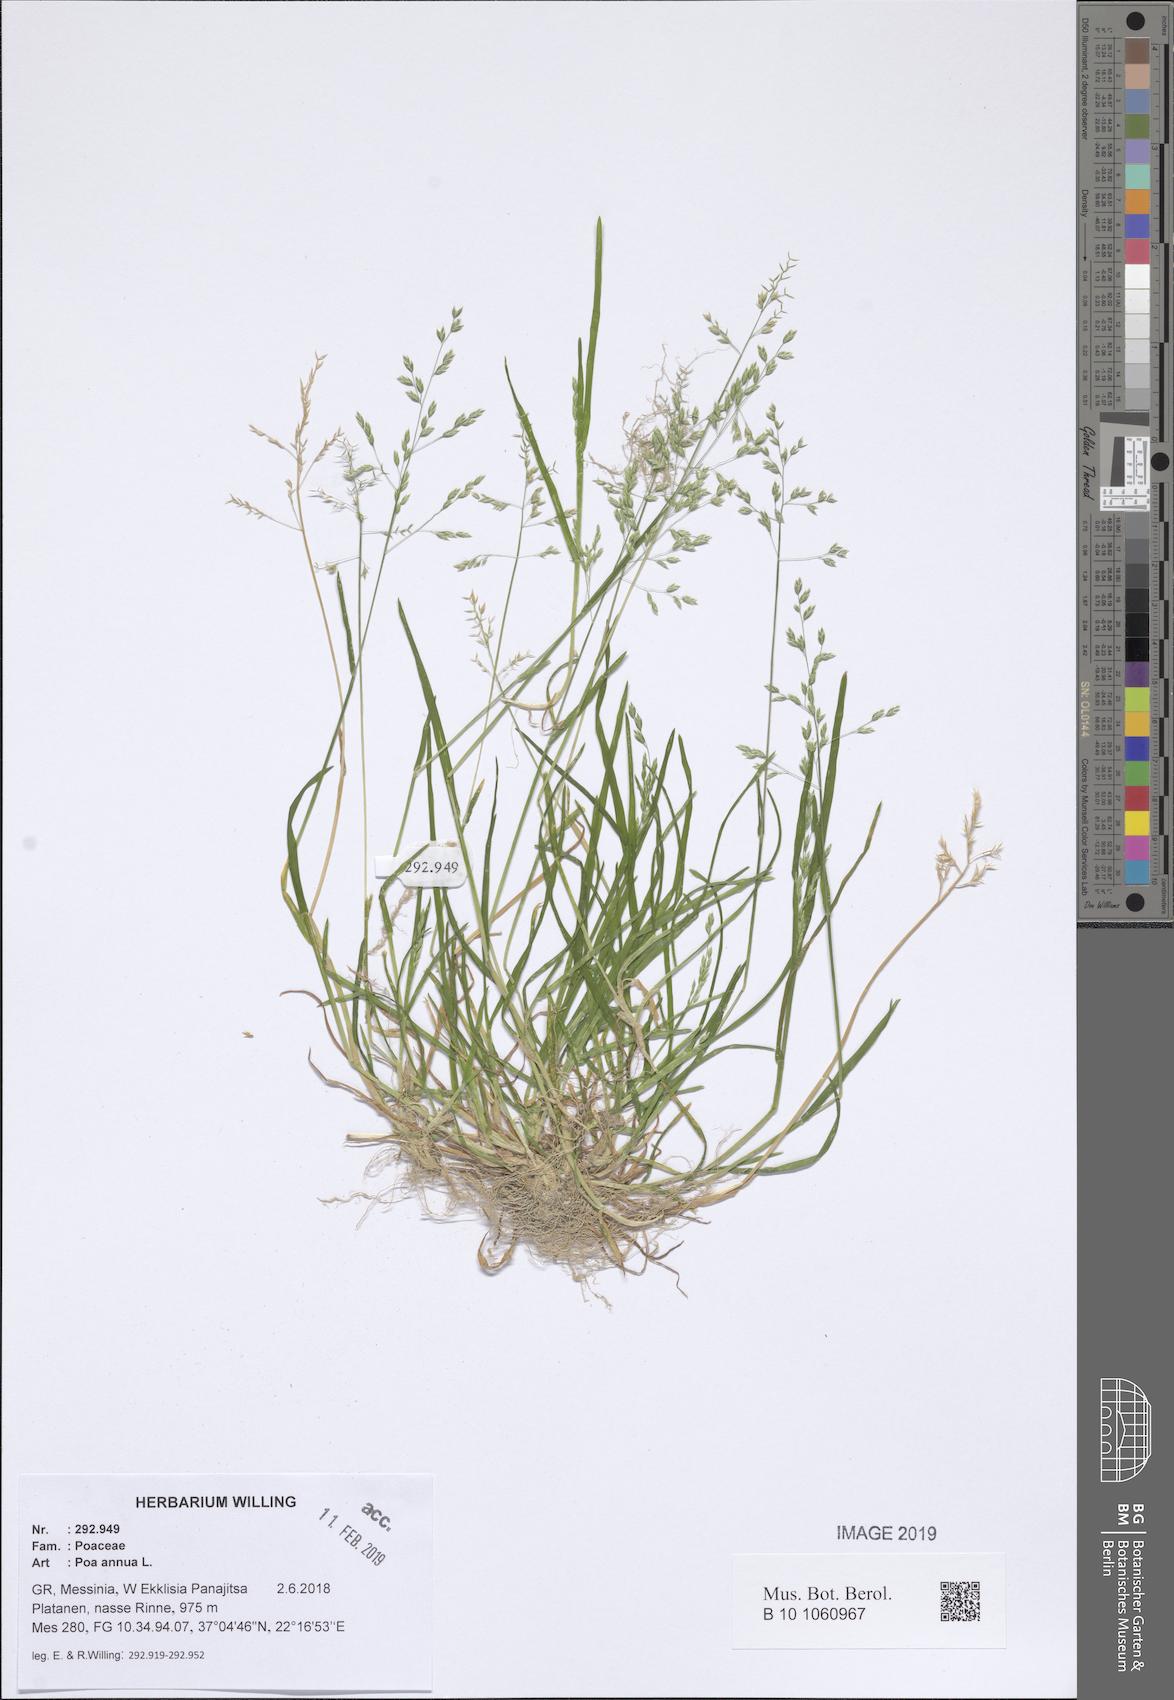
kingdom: Plantae
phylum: Tracheophyta
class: Liliopsida
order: Poales
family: Poaceae
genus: Poa
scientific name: Poa annua
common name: Annual bluegrass
